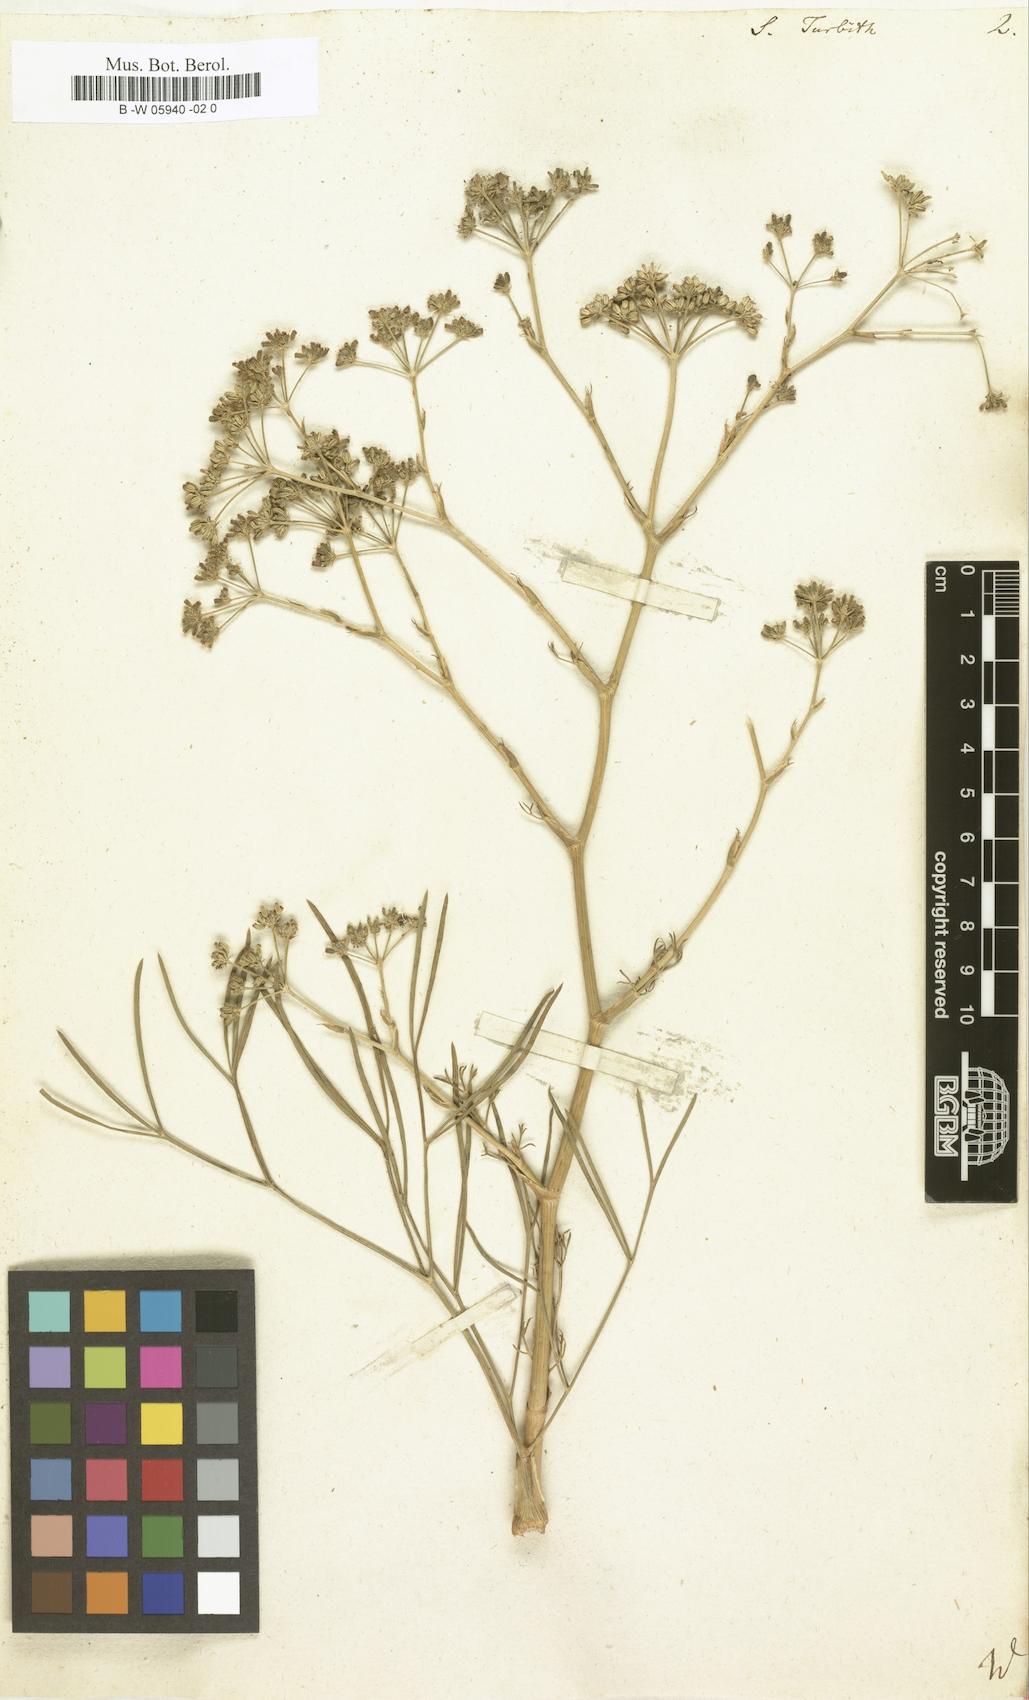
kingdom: Plantae
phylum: Tracheophyta
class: Magnoliopsida
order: Apiales
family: Apiaceae
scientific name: Apiaceae
